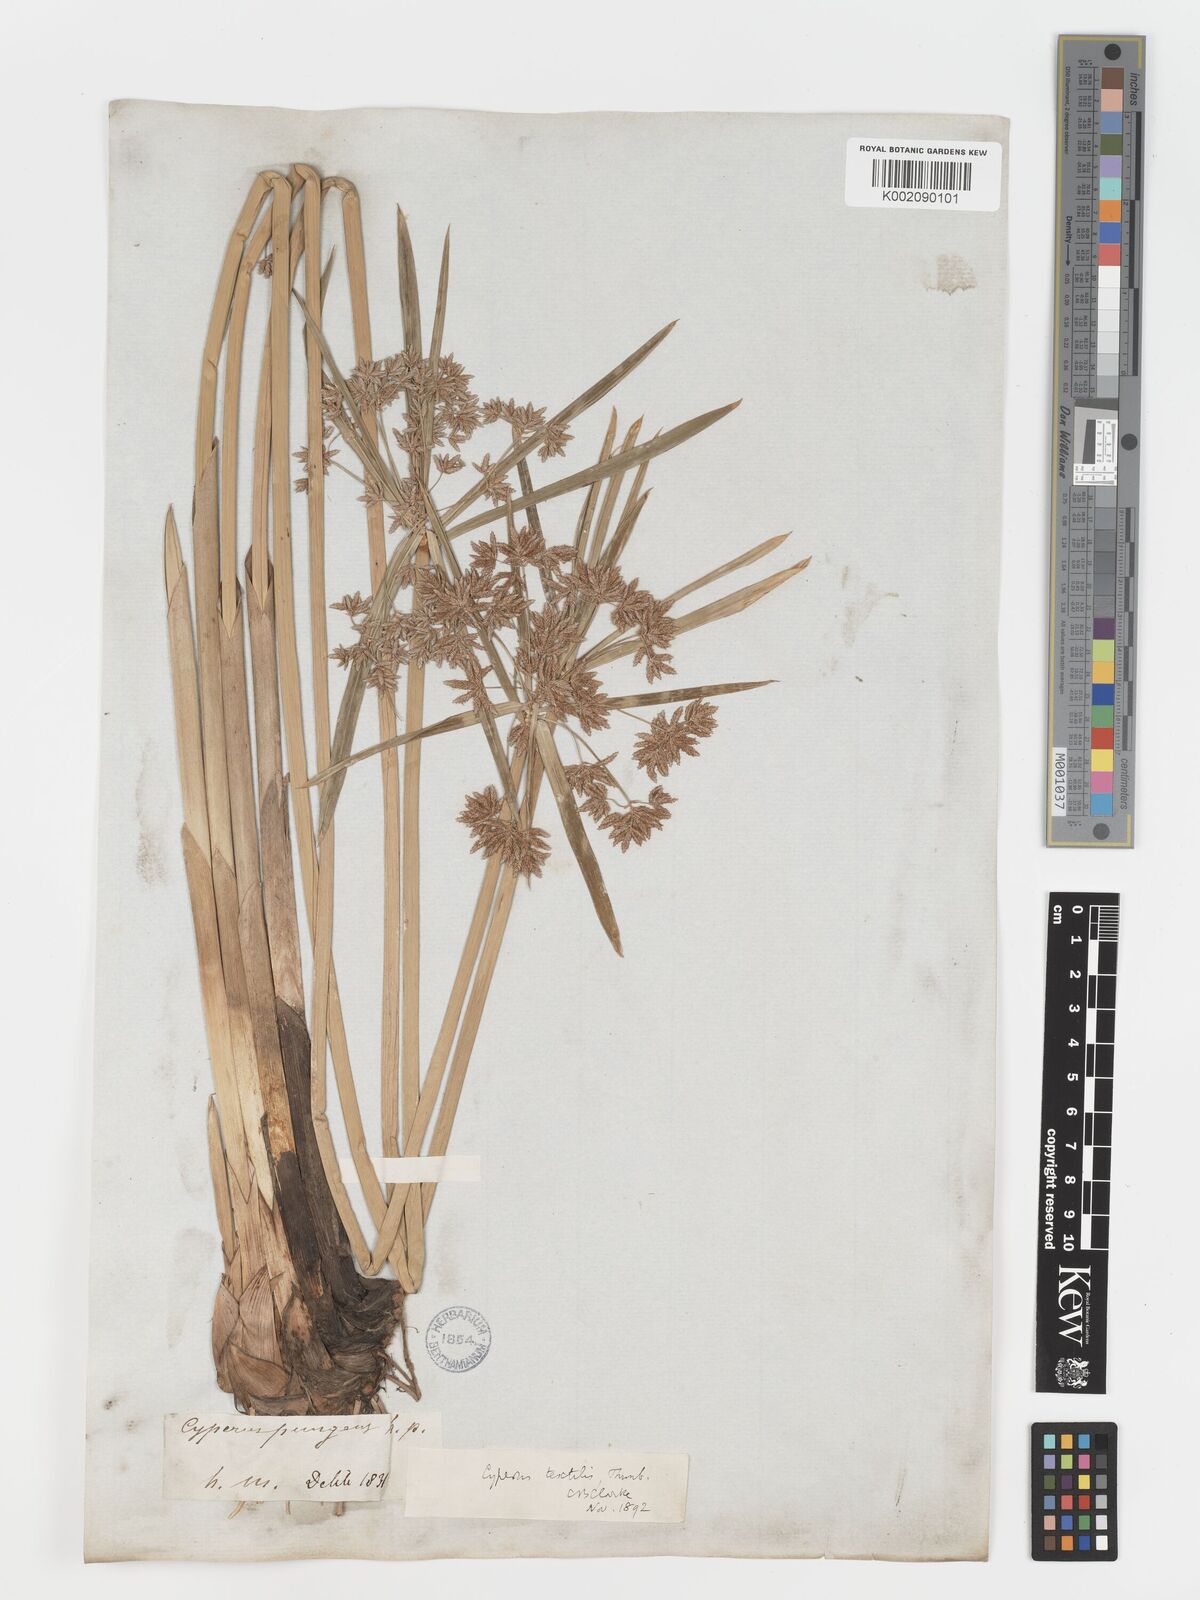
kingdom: Plantae
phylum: Tracheophyta
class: Liliopsida
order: Poales
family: Cyperaceae
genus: Cyperus
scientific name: Cyperus alternifolius
